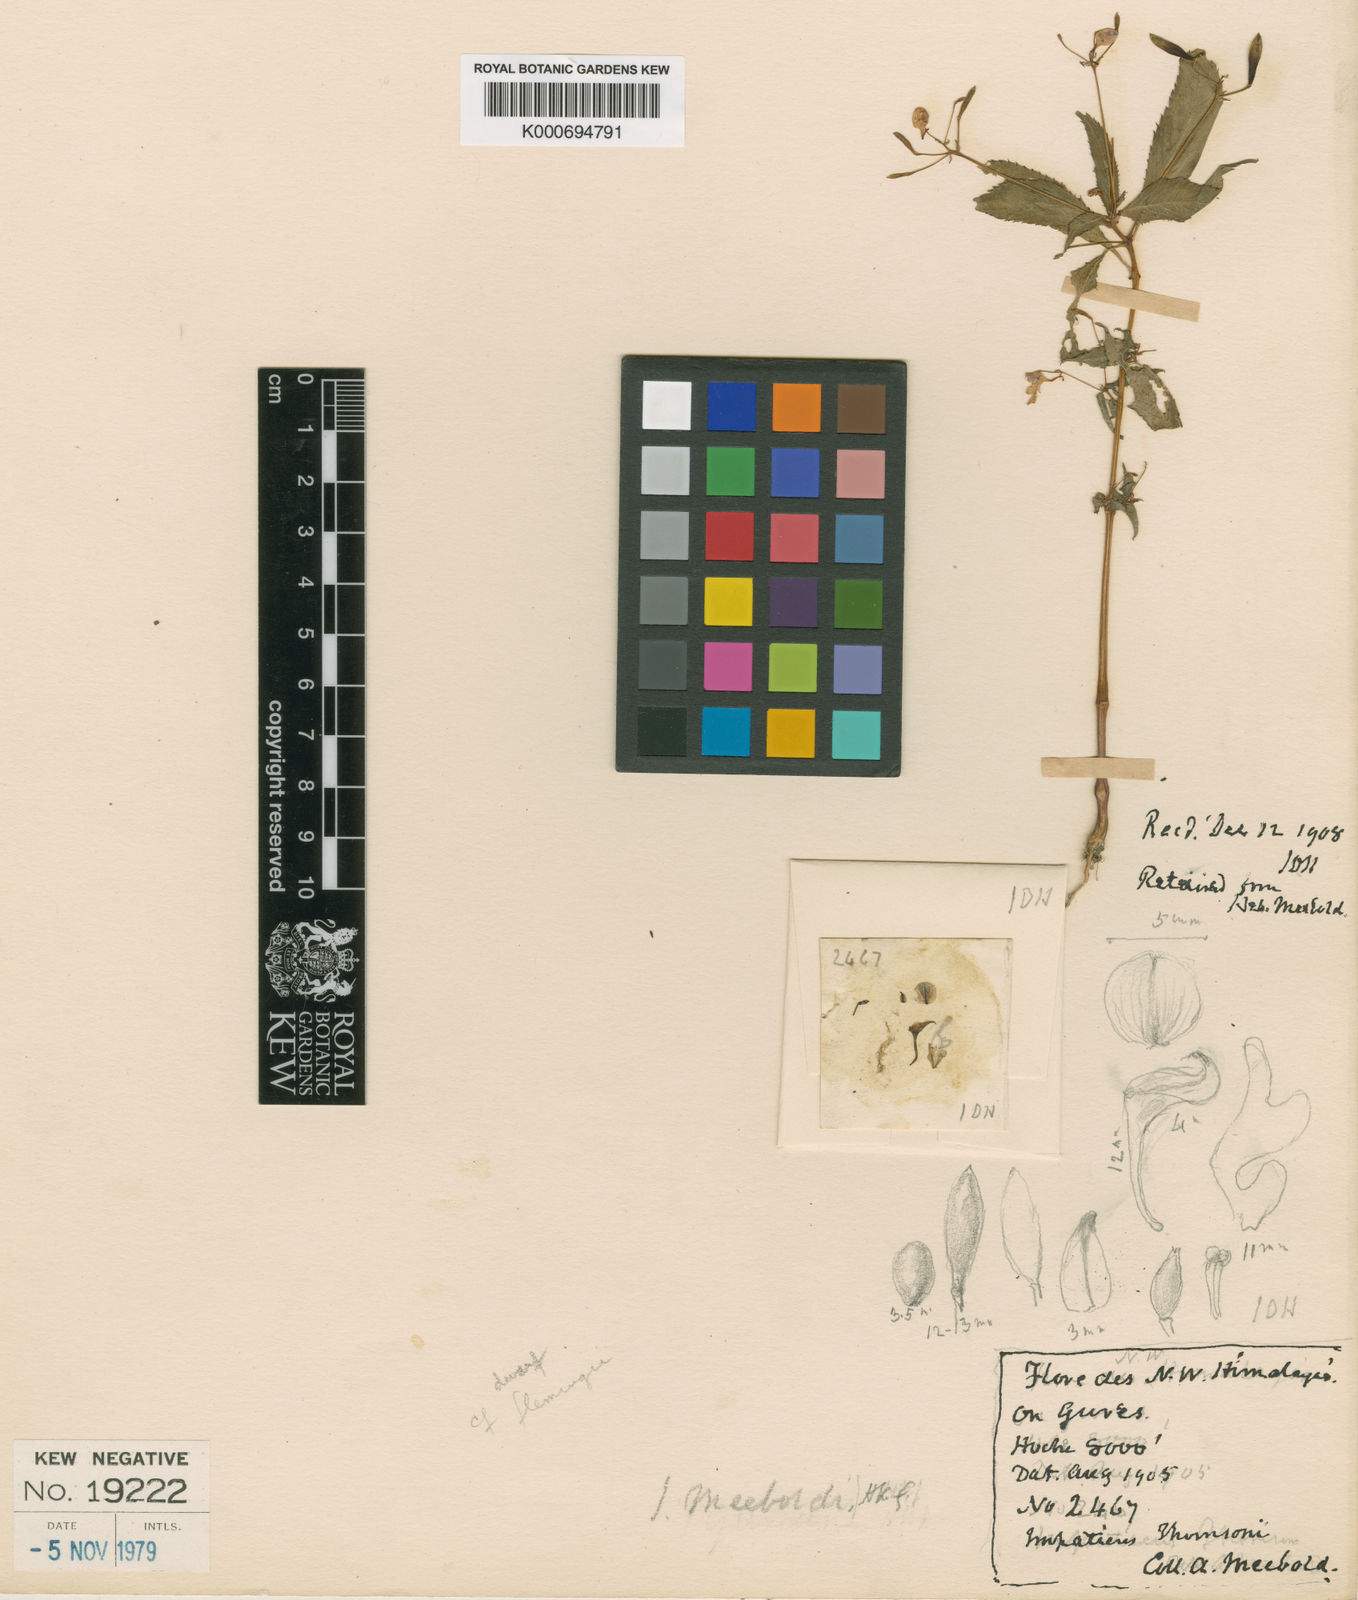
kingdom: Plantae
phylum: Tracheophyta
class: Magnoliopsida
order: Ericales
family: Balsaminaceae
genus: Impatiens
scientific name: Impatiens meeboldii
